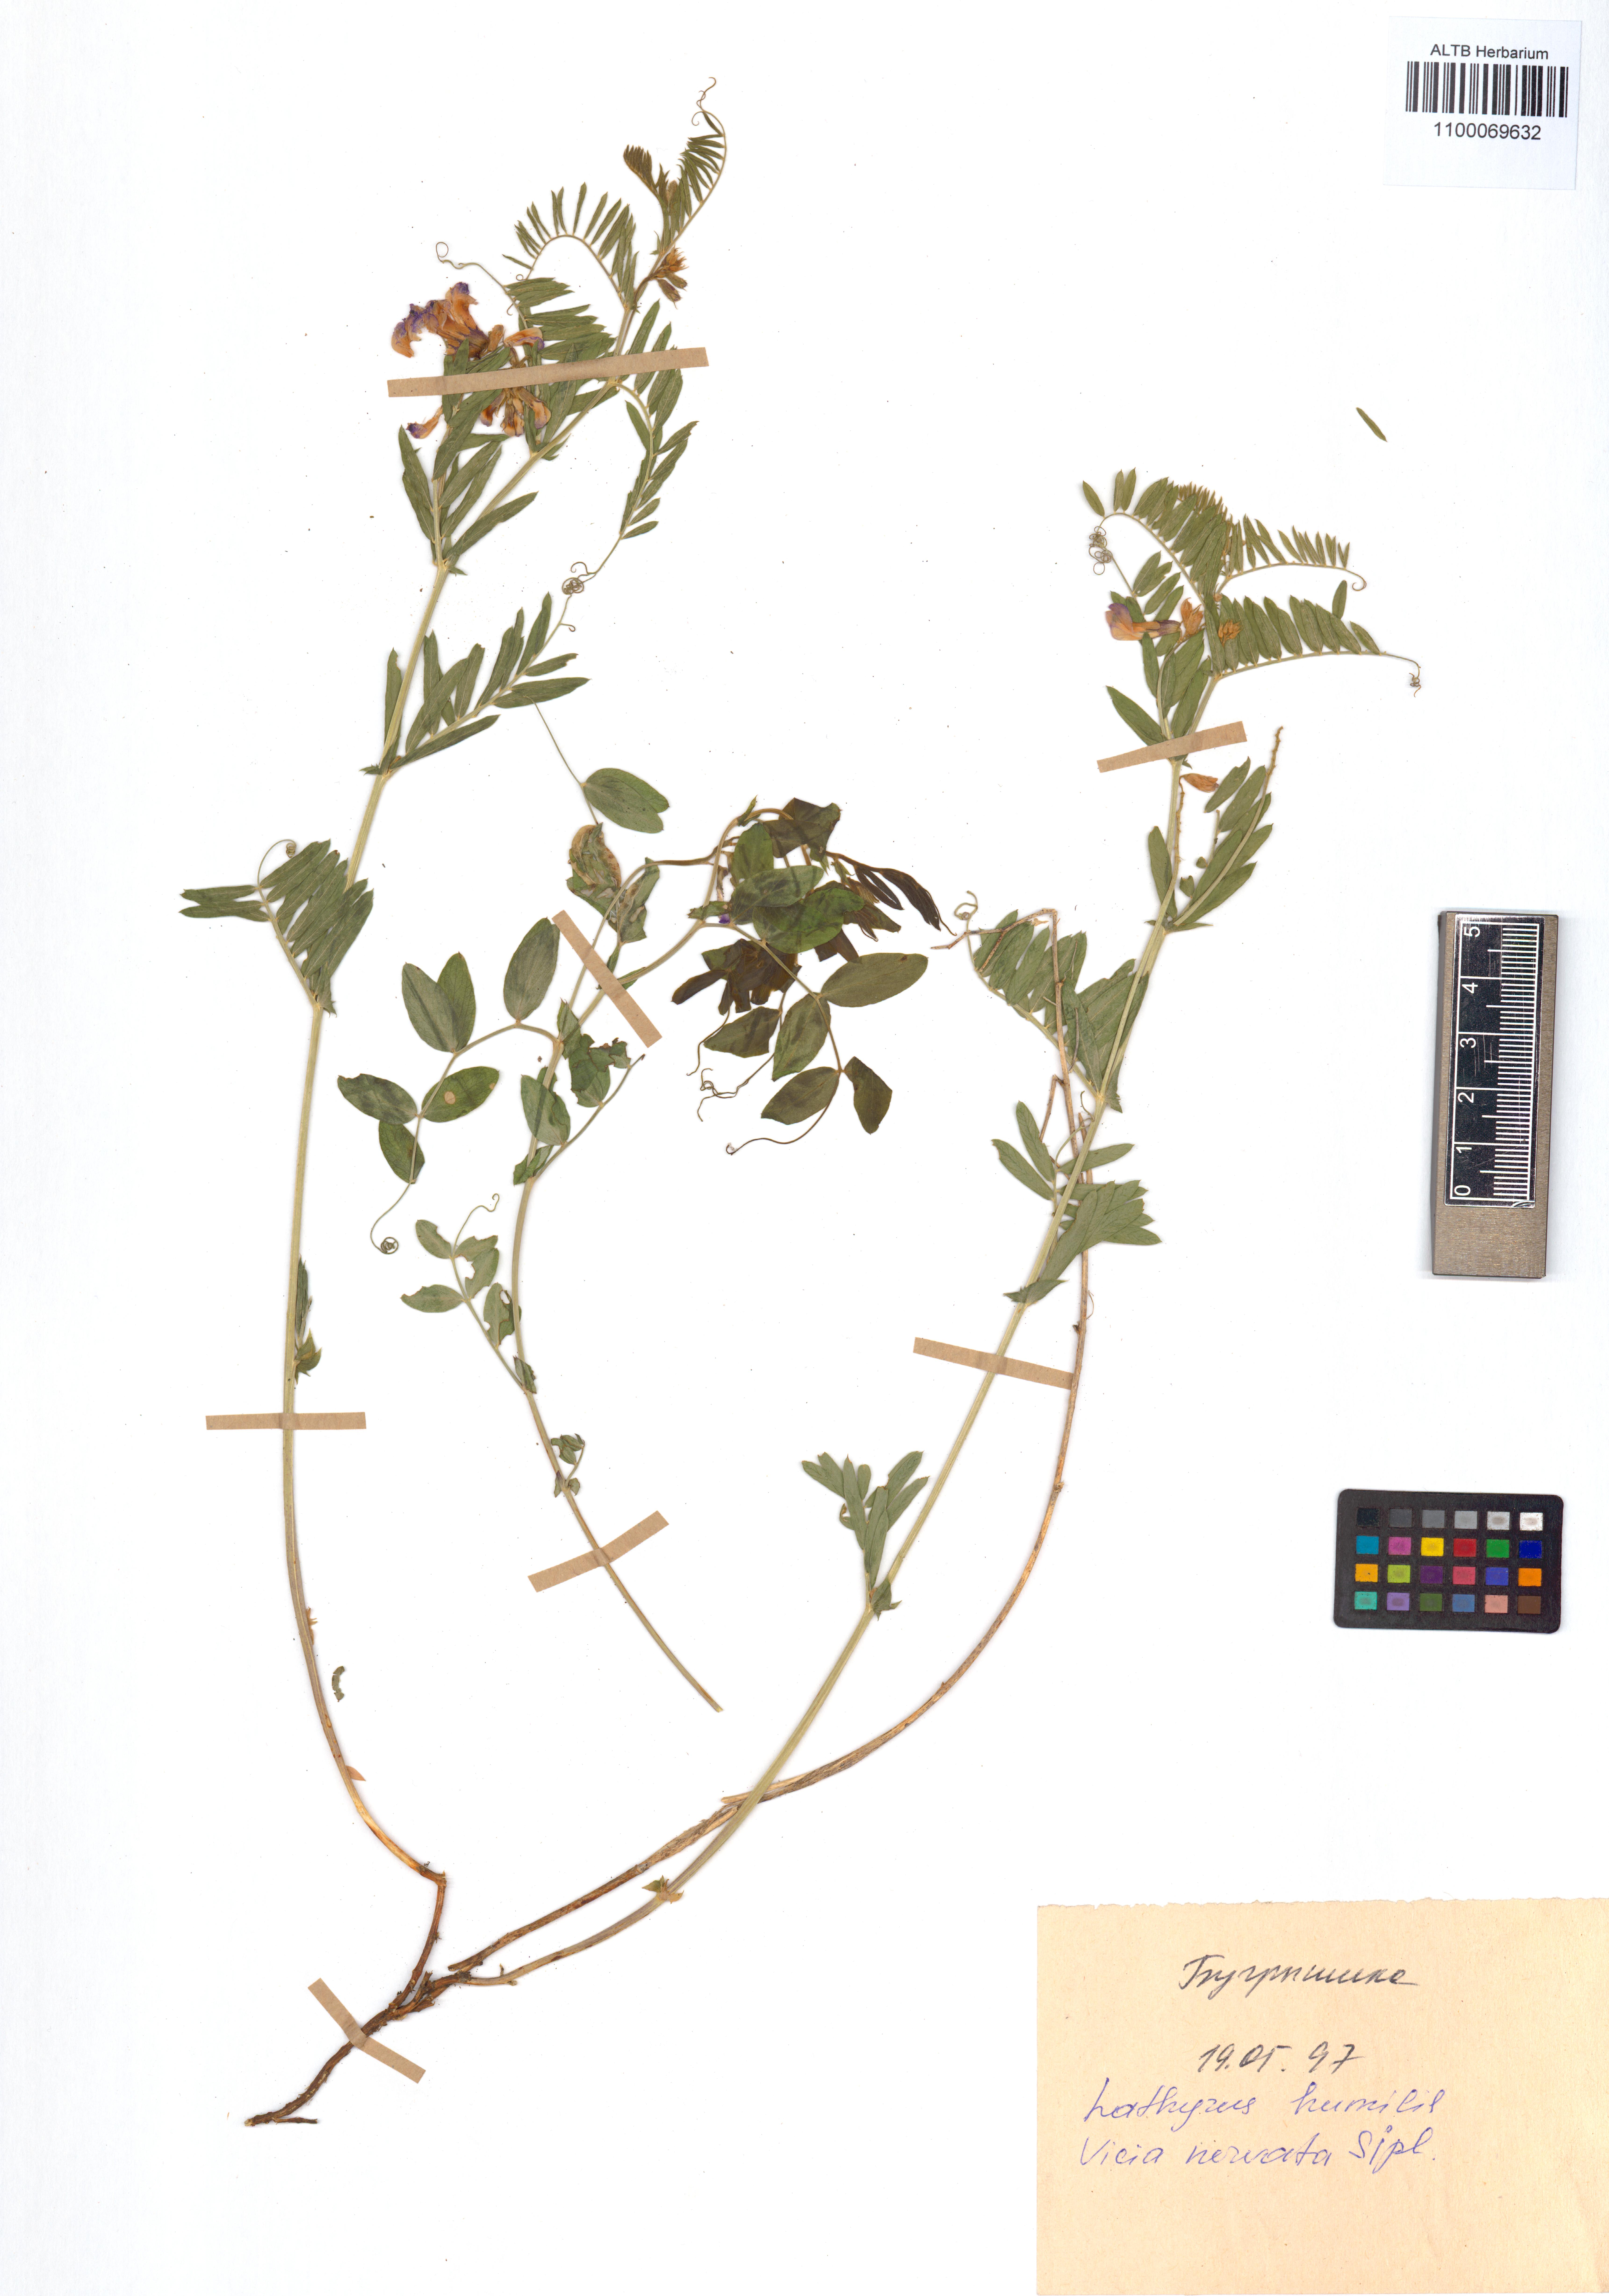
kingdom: Plantae
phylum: Tracheophyta
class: Magnoliopsida
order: Fabales
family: Fabaceae
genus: Vicia
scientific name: Vicia multicaulis
